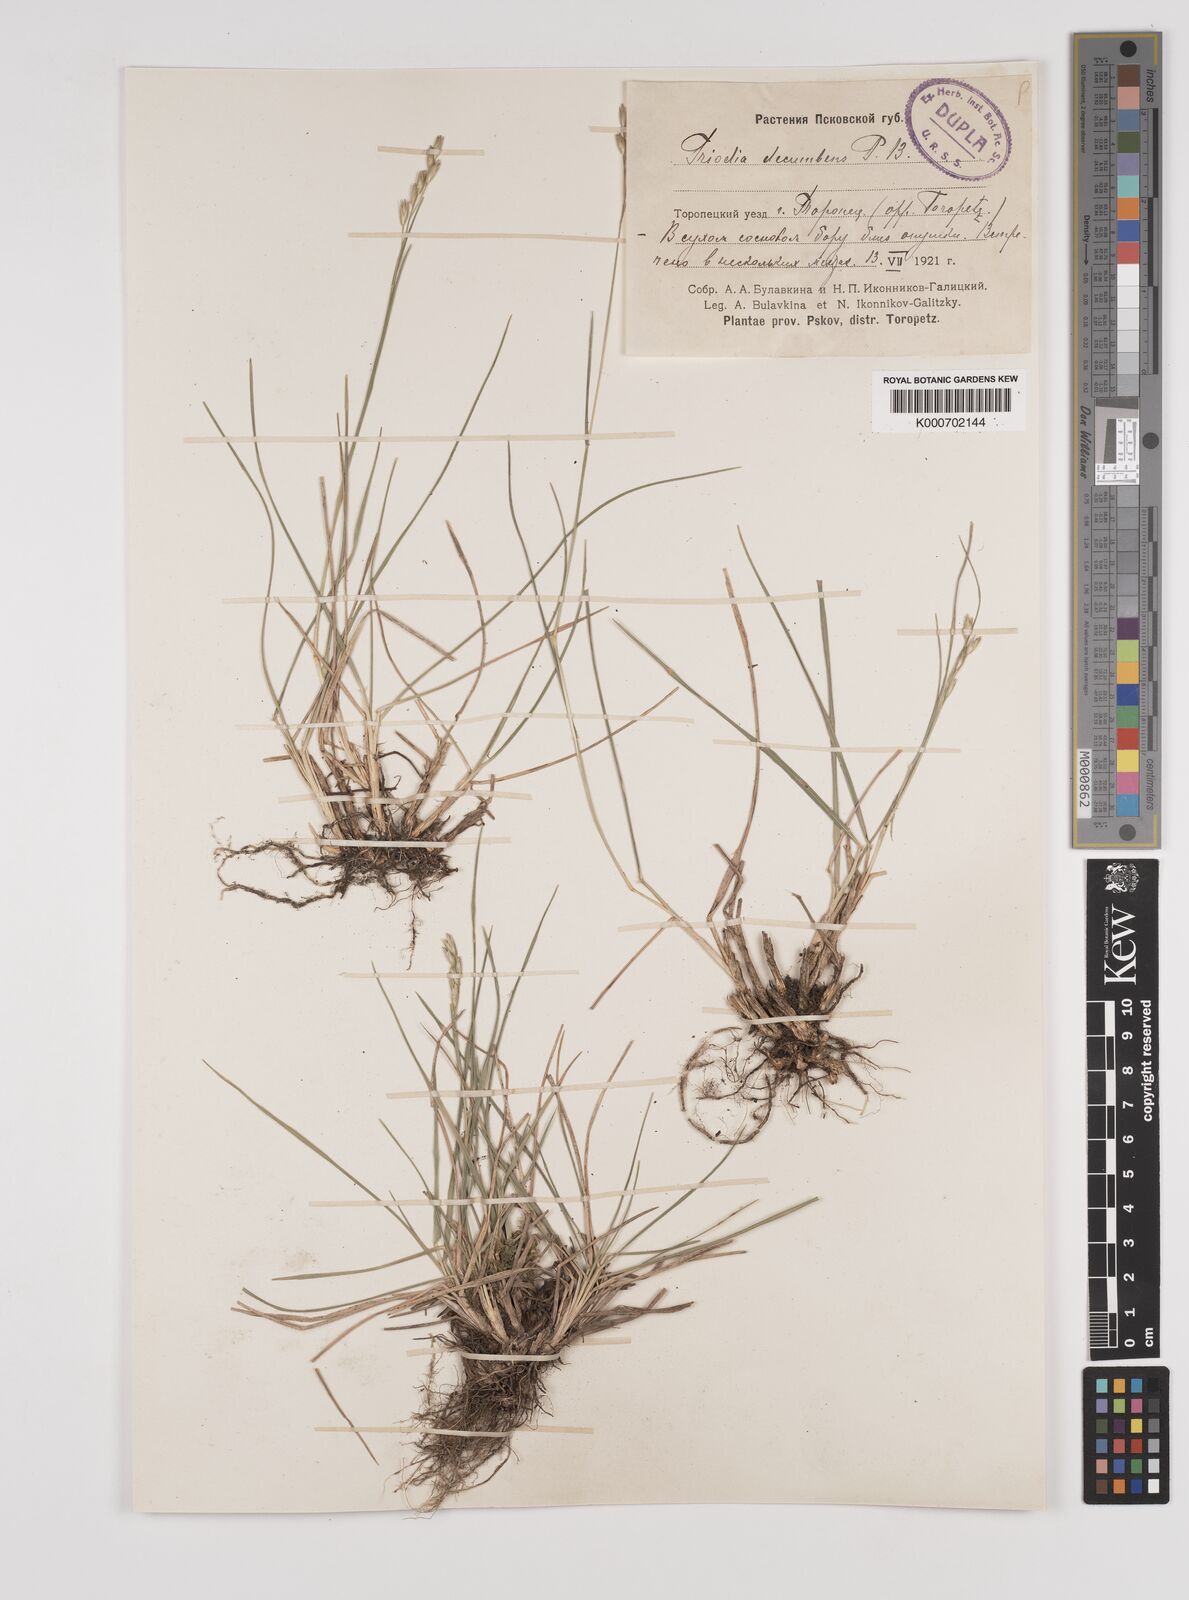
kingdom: Plantae
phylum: Tracheophyta
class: Liliopsida
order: Poales
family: Poaceae
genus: Danthonia
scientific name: Danthonia decumbens
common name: Common heathgrass
